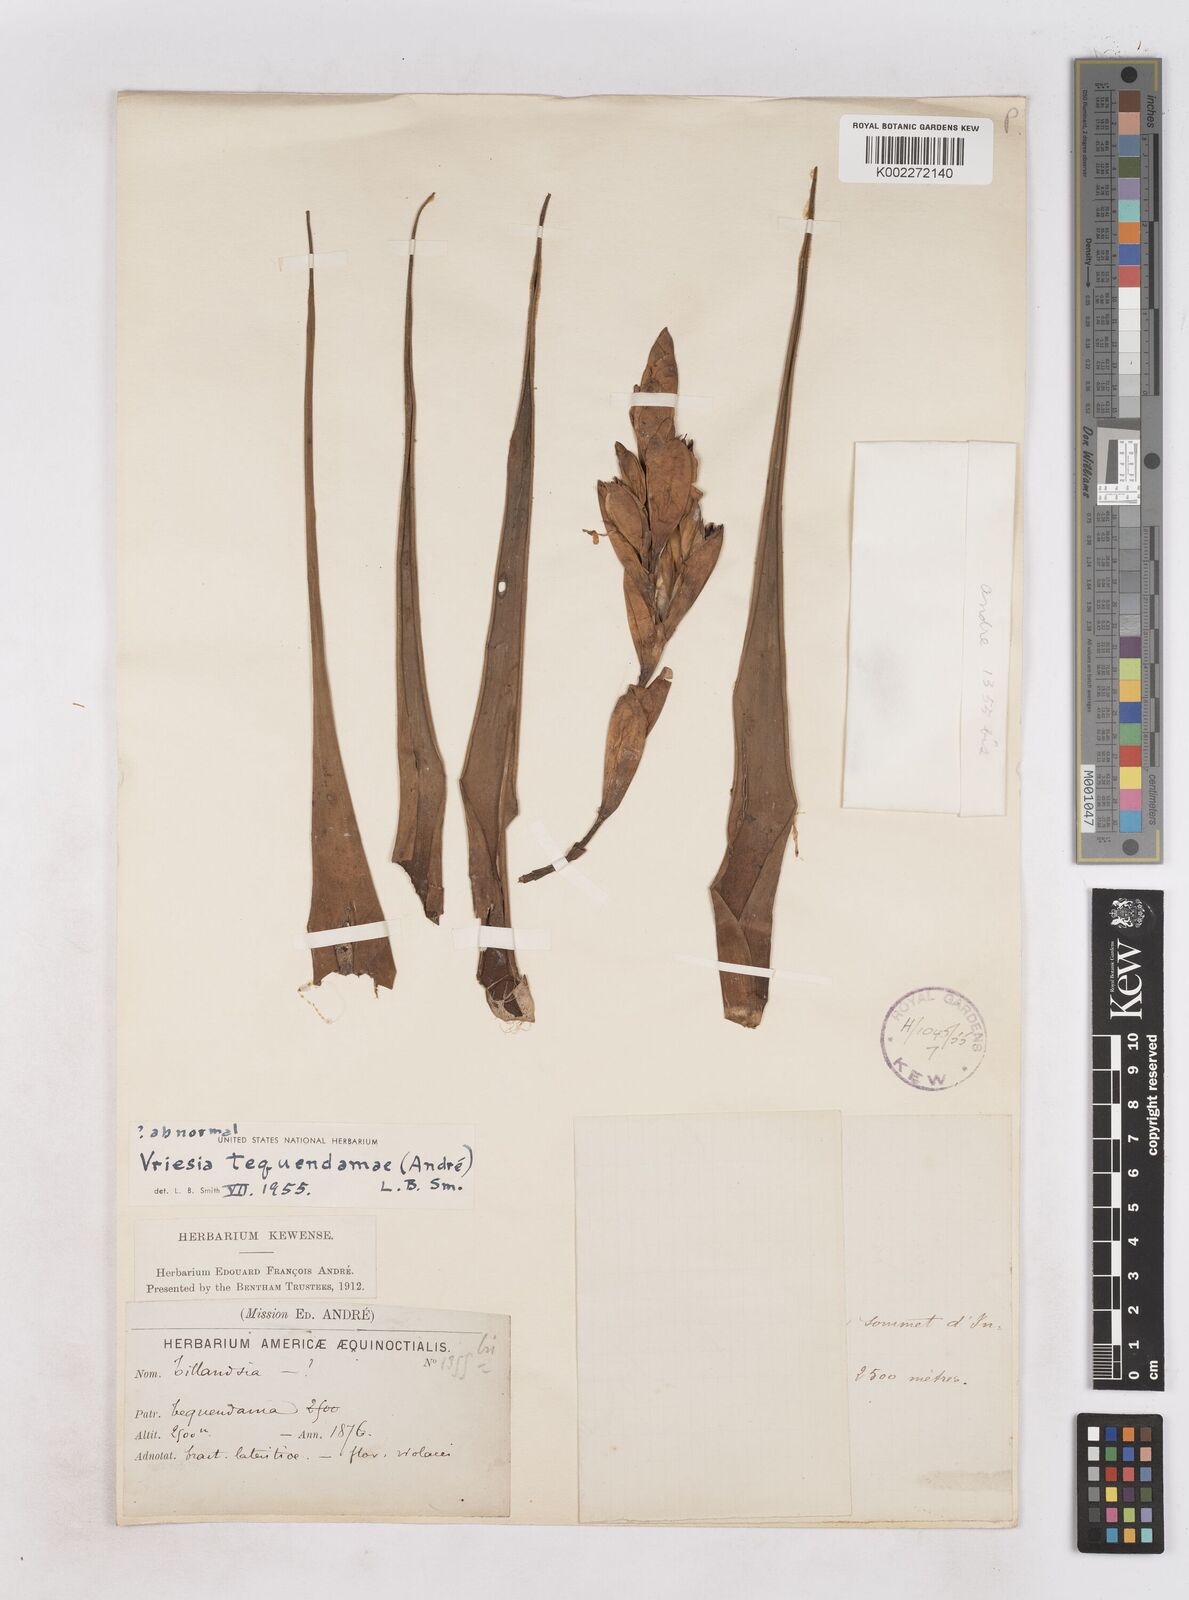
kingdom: Plantae
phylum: Tracheophyta
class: Liliopsida
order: Poales
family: Bromeliaceae
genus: Vriesea
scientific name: Vriesea tequendamae
